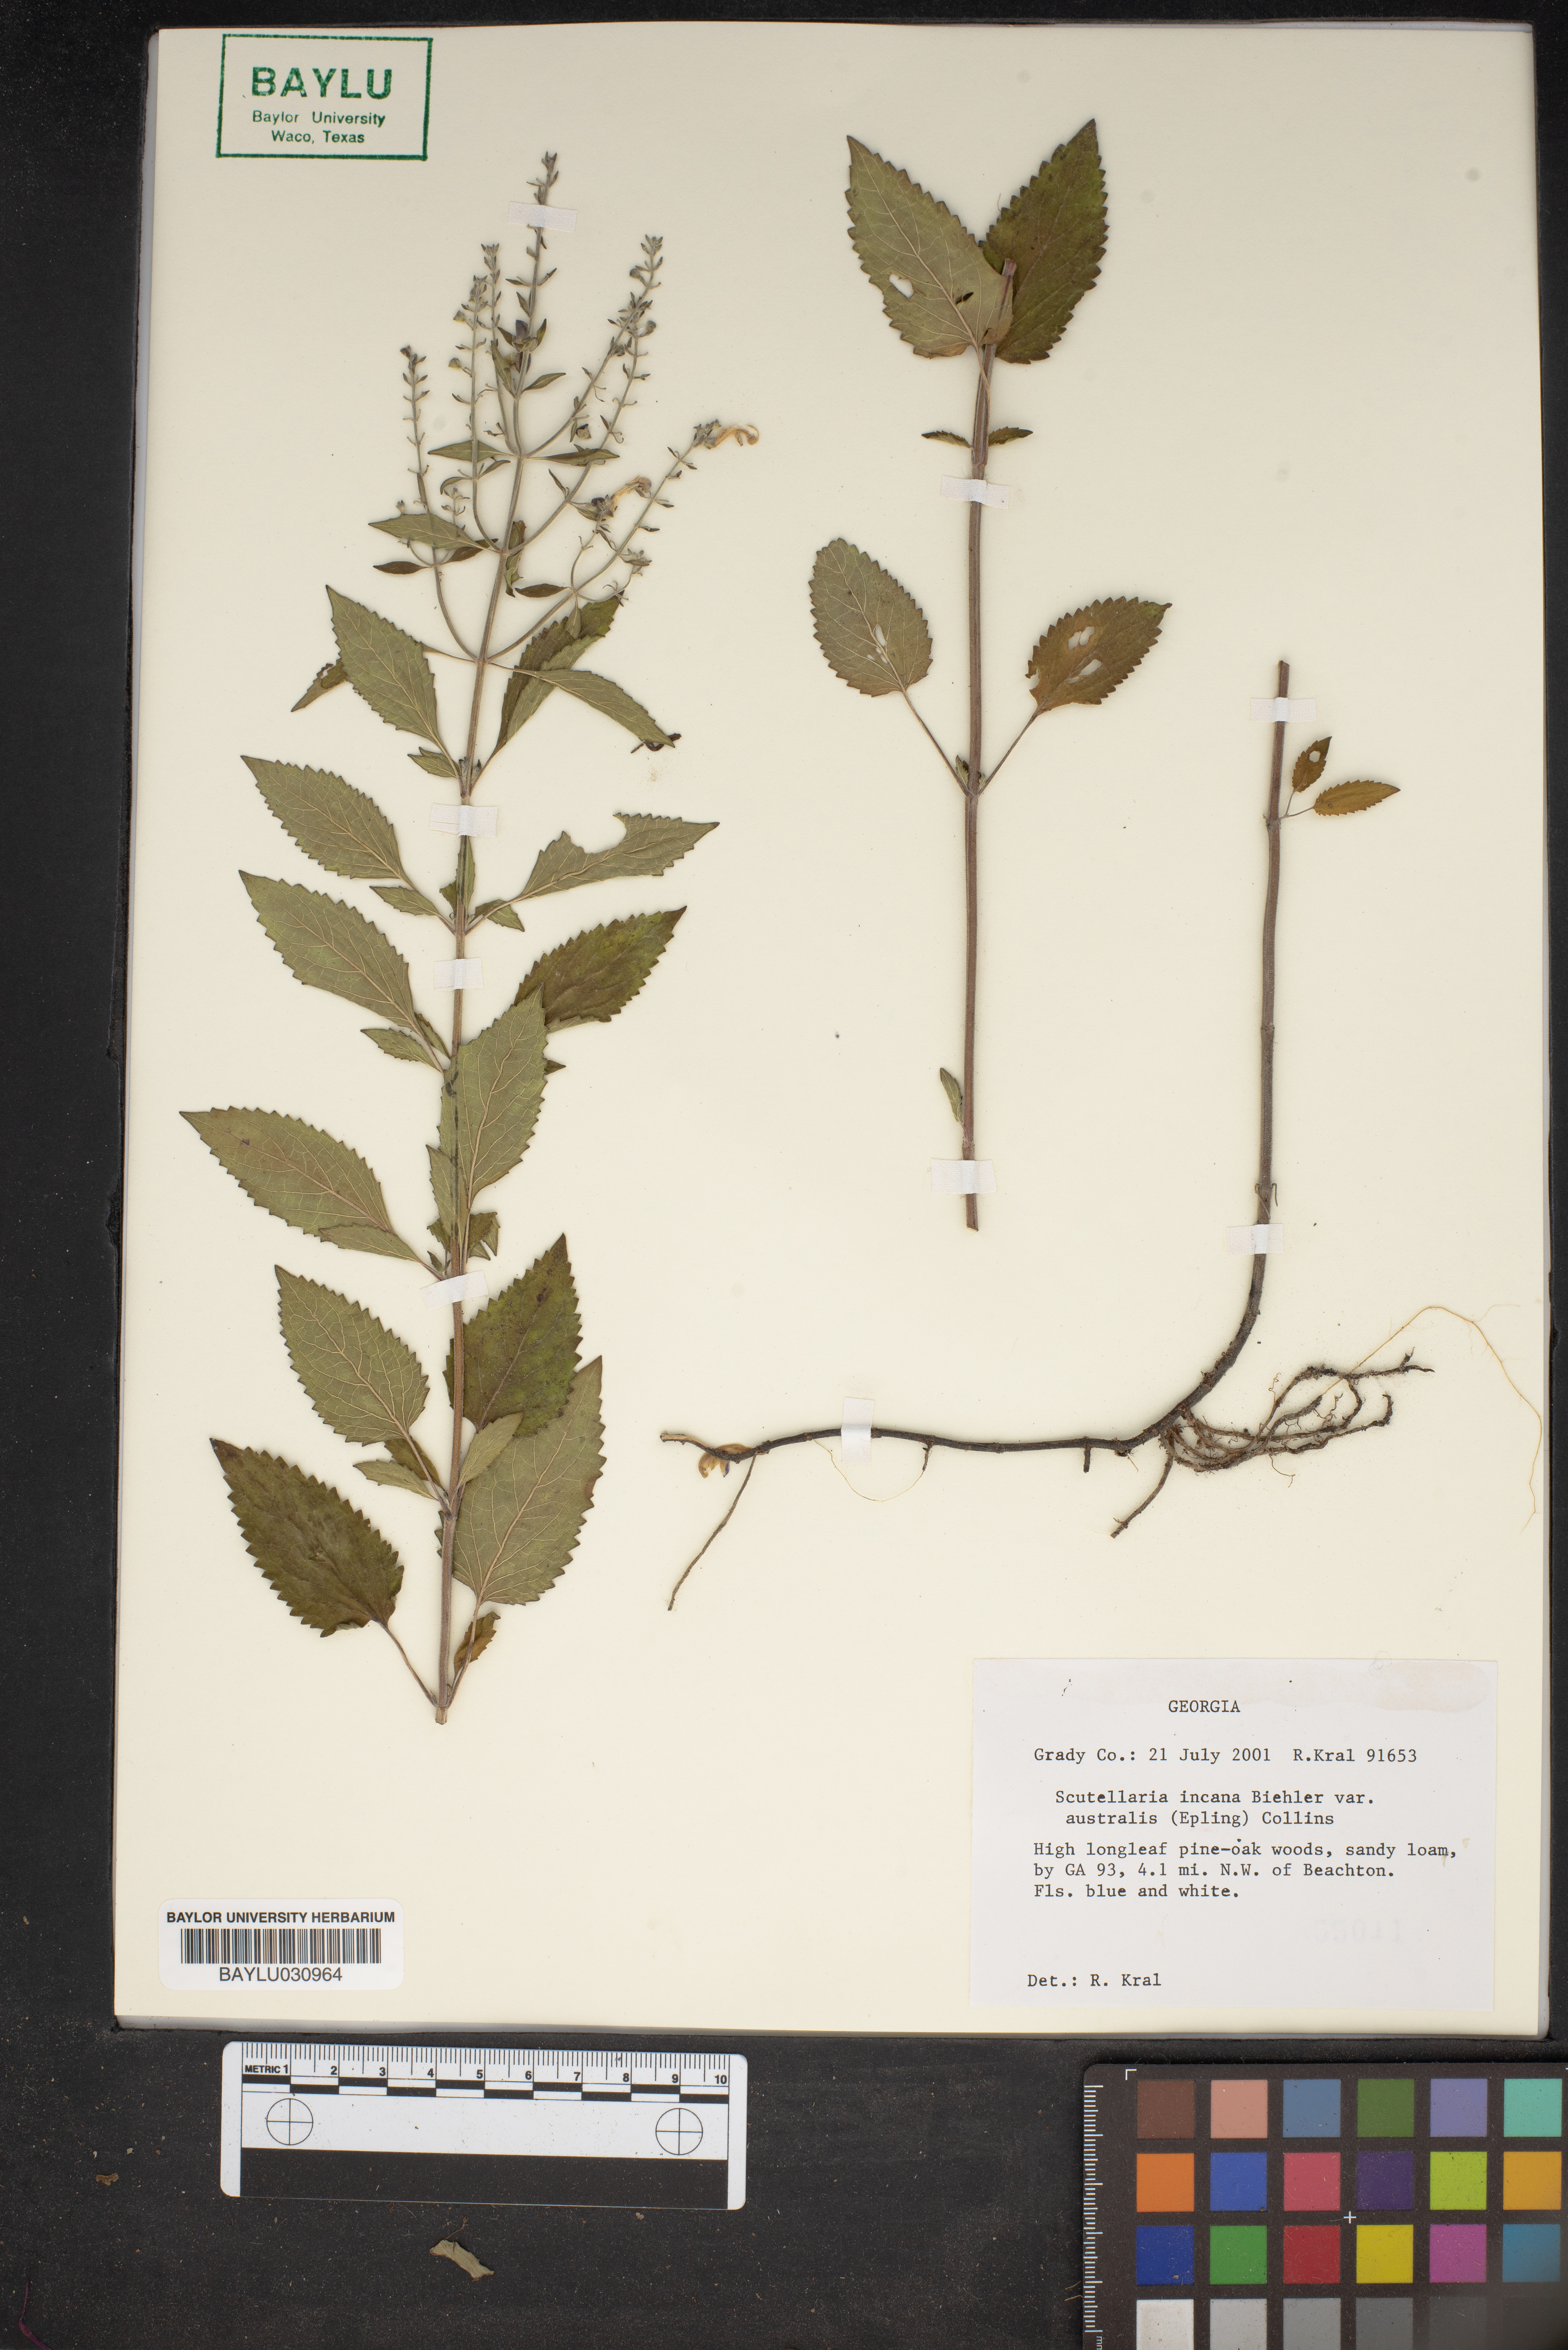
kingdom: Plantae
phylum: Tracheophyta
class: Magnoliopsida
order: Lamiales
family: Lamiaceae
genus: Scutellaria
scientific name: Scutellaria incana
